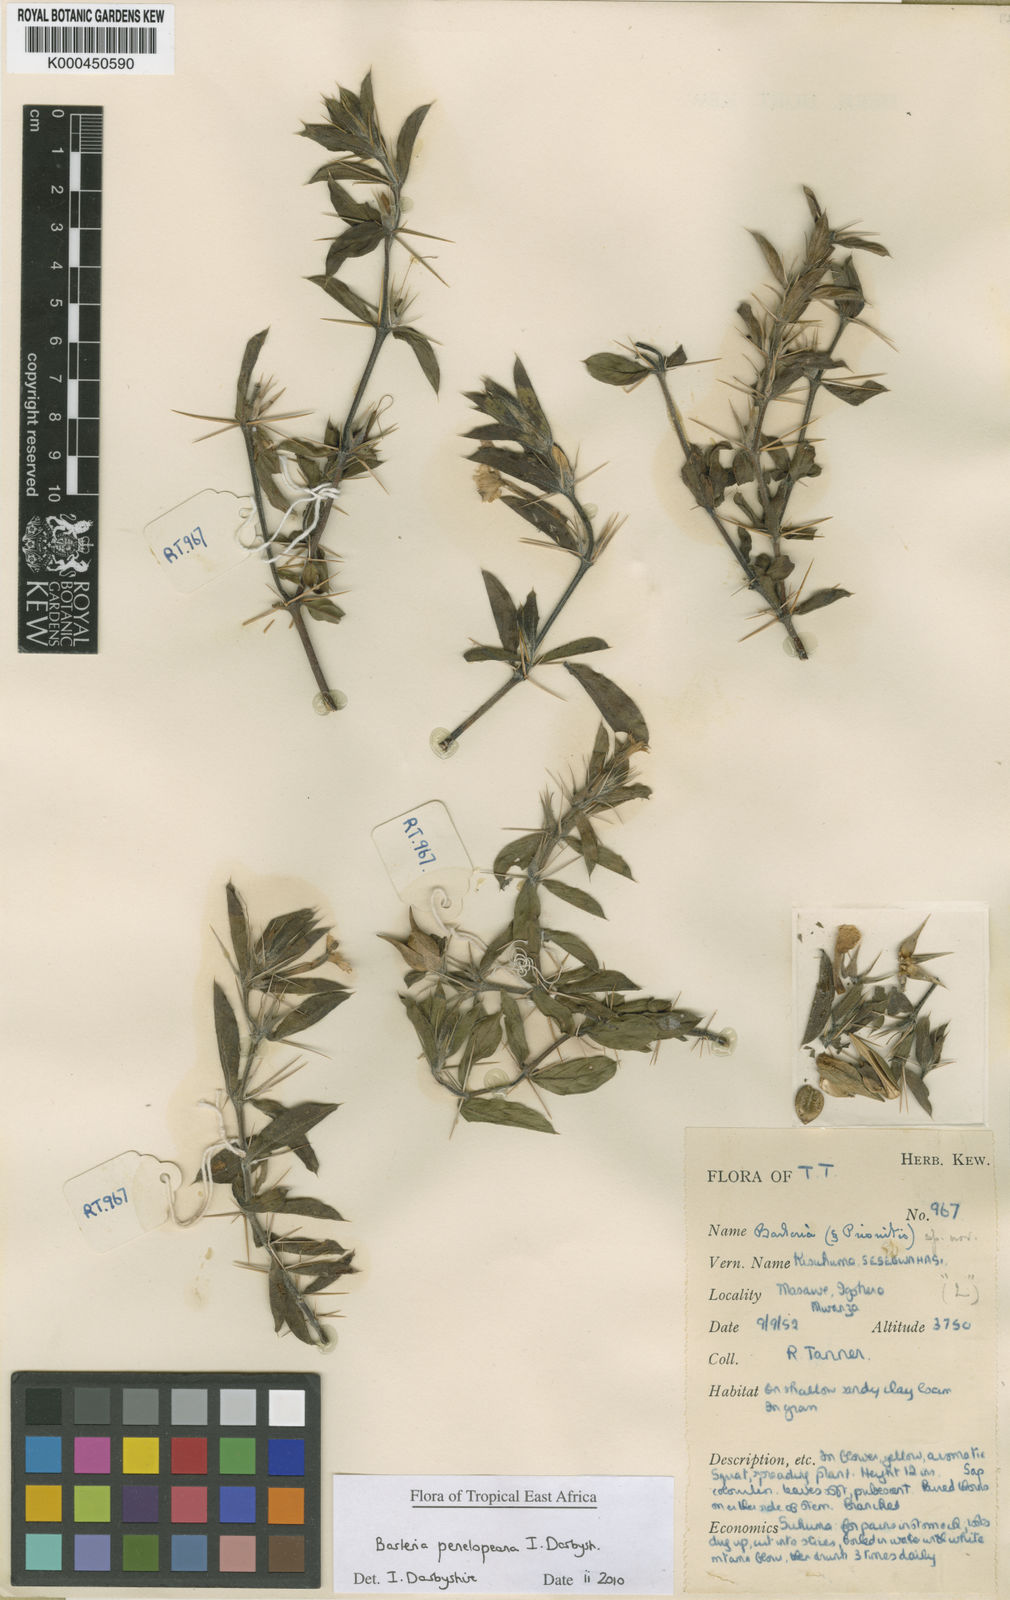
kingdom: Plantae
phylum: Tracheophyta
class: Magnoliopsida
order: Lamiales
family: Acanthaceae
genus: Barleria
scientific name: Barleria penelopeana
